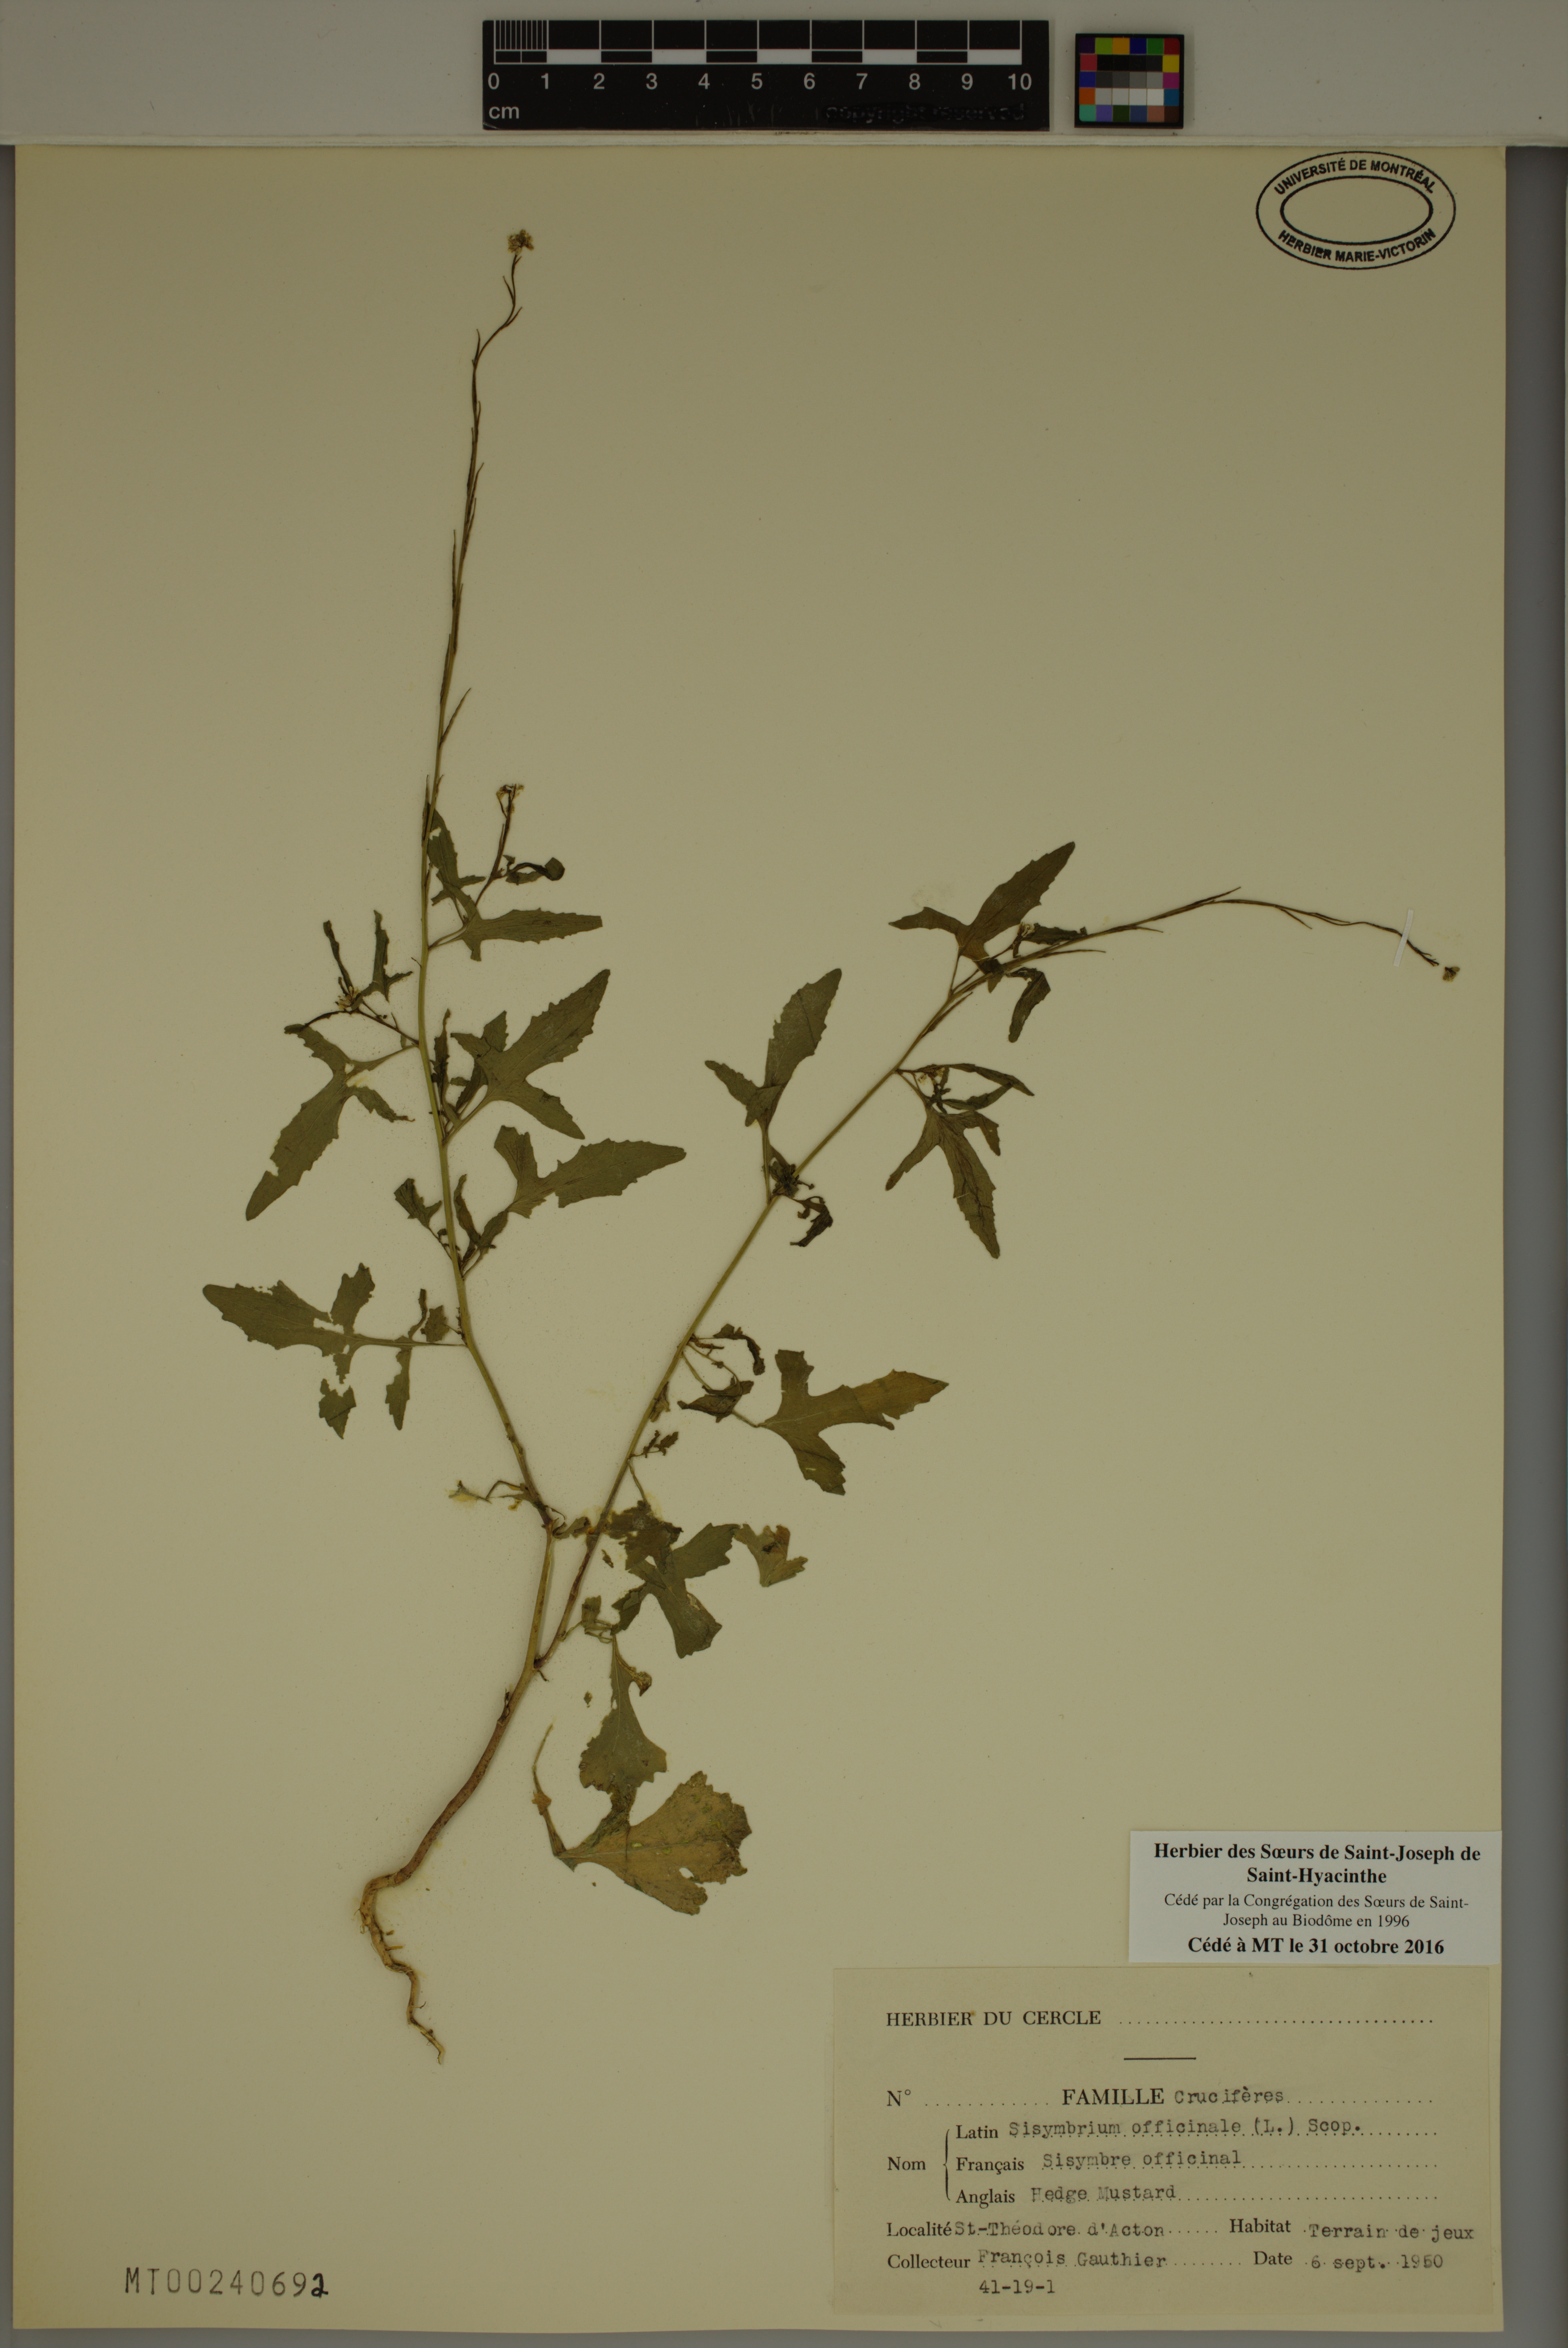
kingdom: Plantae
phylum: Tracheophyta
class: Magnoliopsida
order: Brassicales
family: Brassicaceae
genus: Sisymbrium
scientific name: Sisymbrium officinale
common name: Hedge mustard
